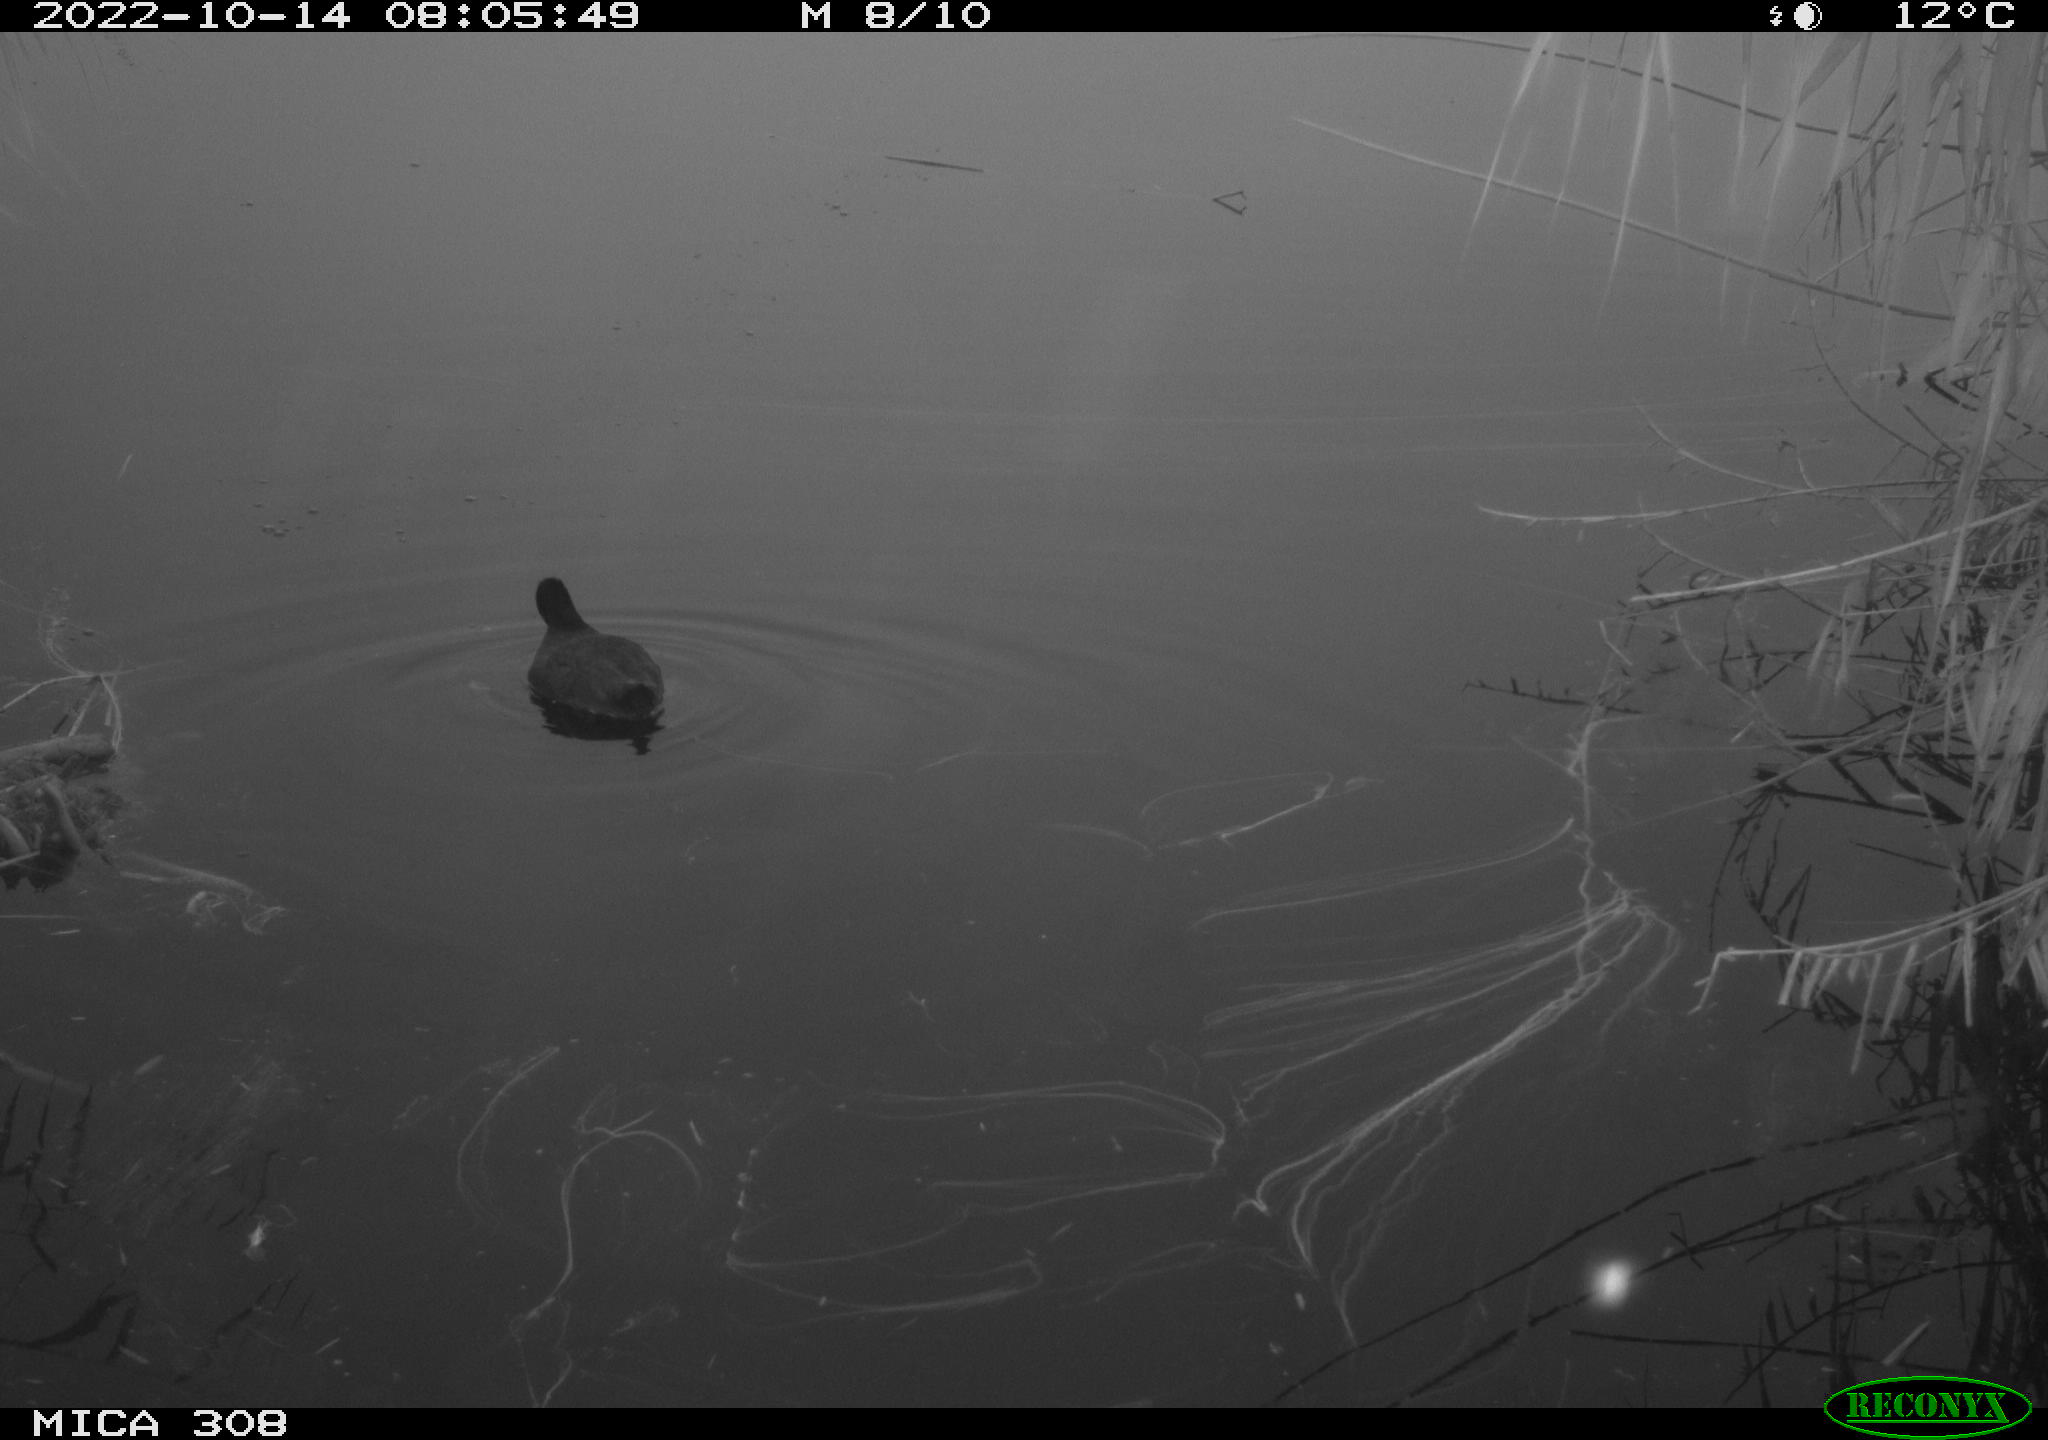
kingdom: Animalia
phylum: Chordata
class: Aves
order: Gruiformes
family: Rallidae
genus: Fulica
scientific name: Fulica atra
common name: Eurasian coot
